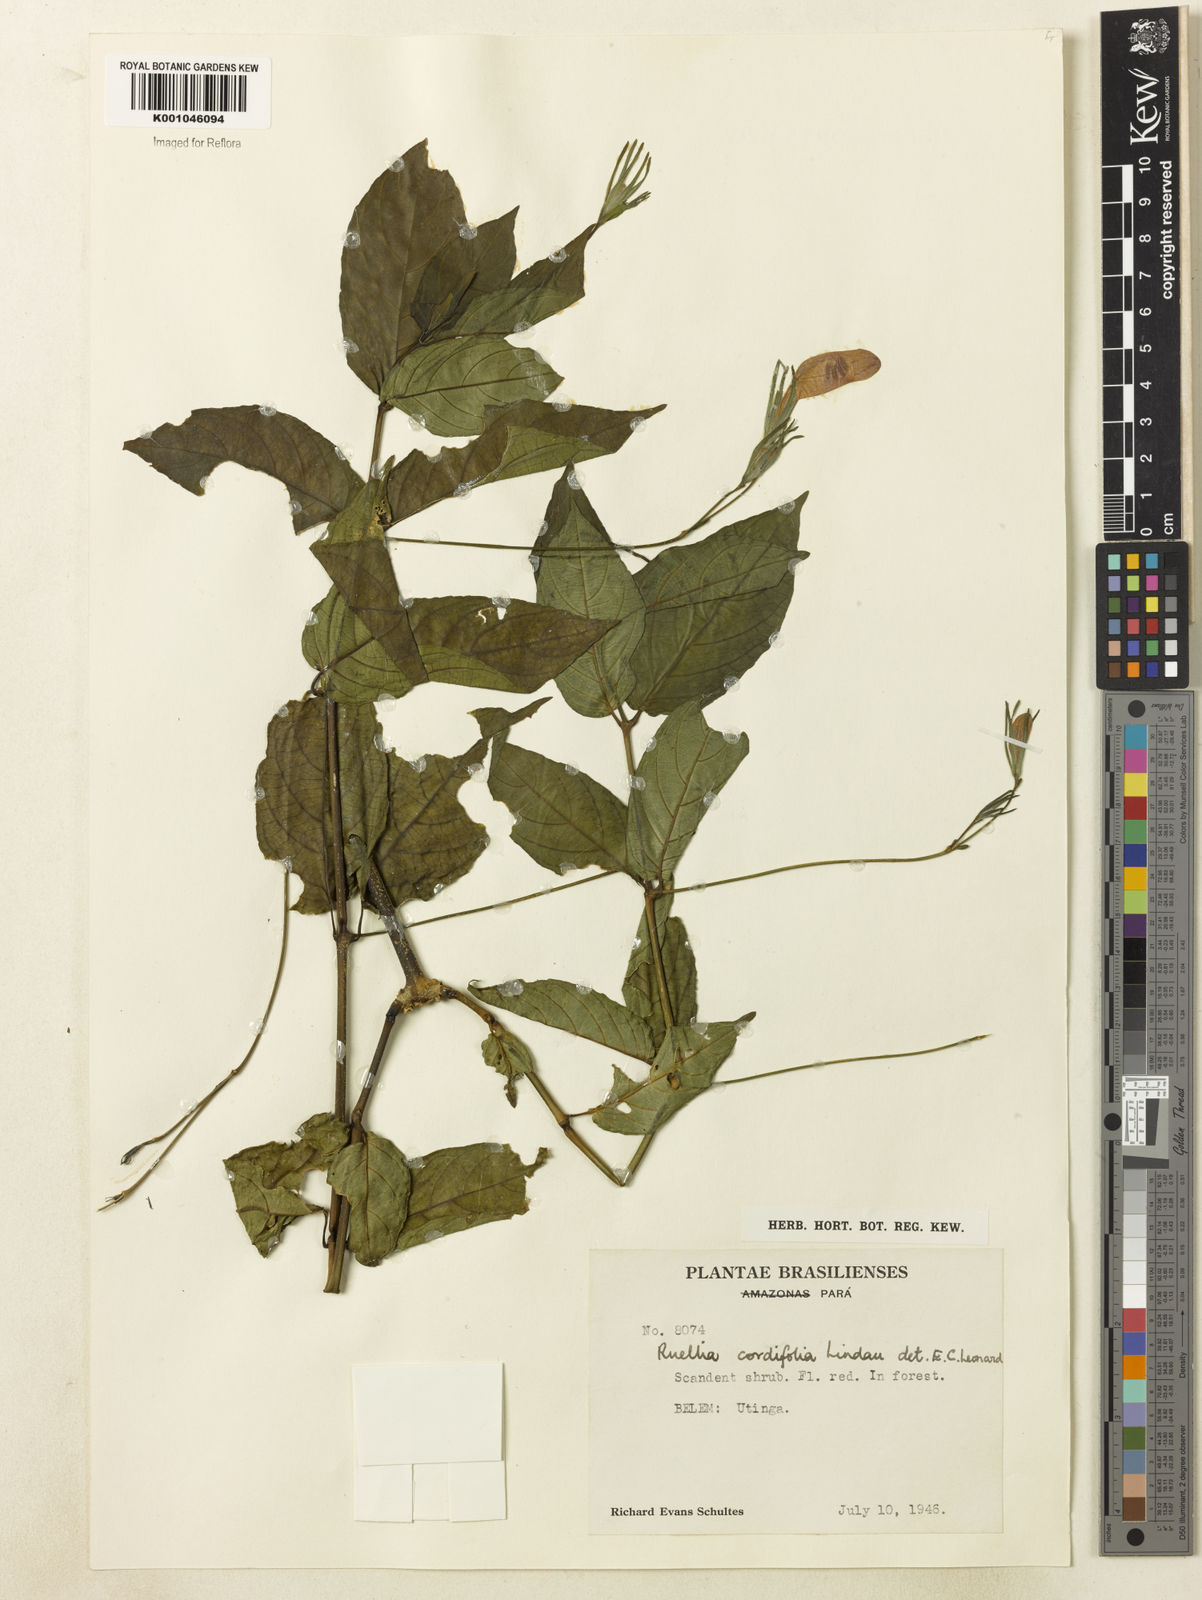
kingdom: Plantae
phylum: Tracheophyta
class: Magnoliopsida
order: Lamiales
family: Acanthaceae
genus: Ruellia
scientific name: Ruellia inflata
